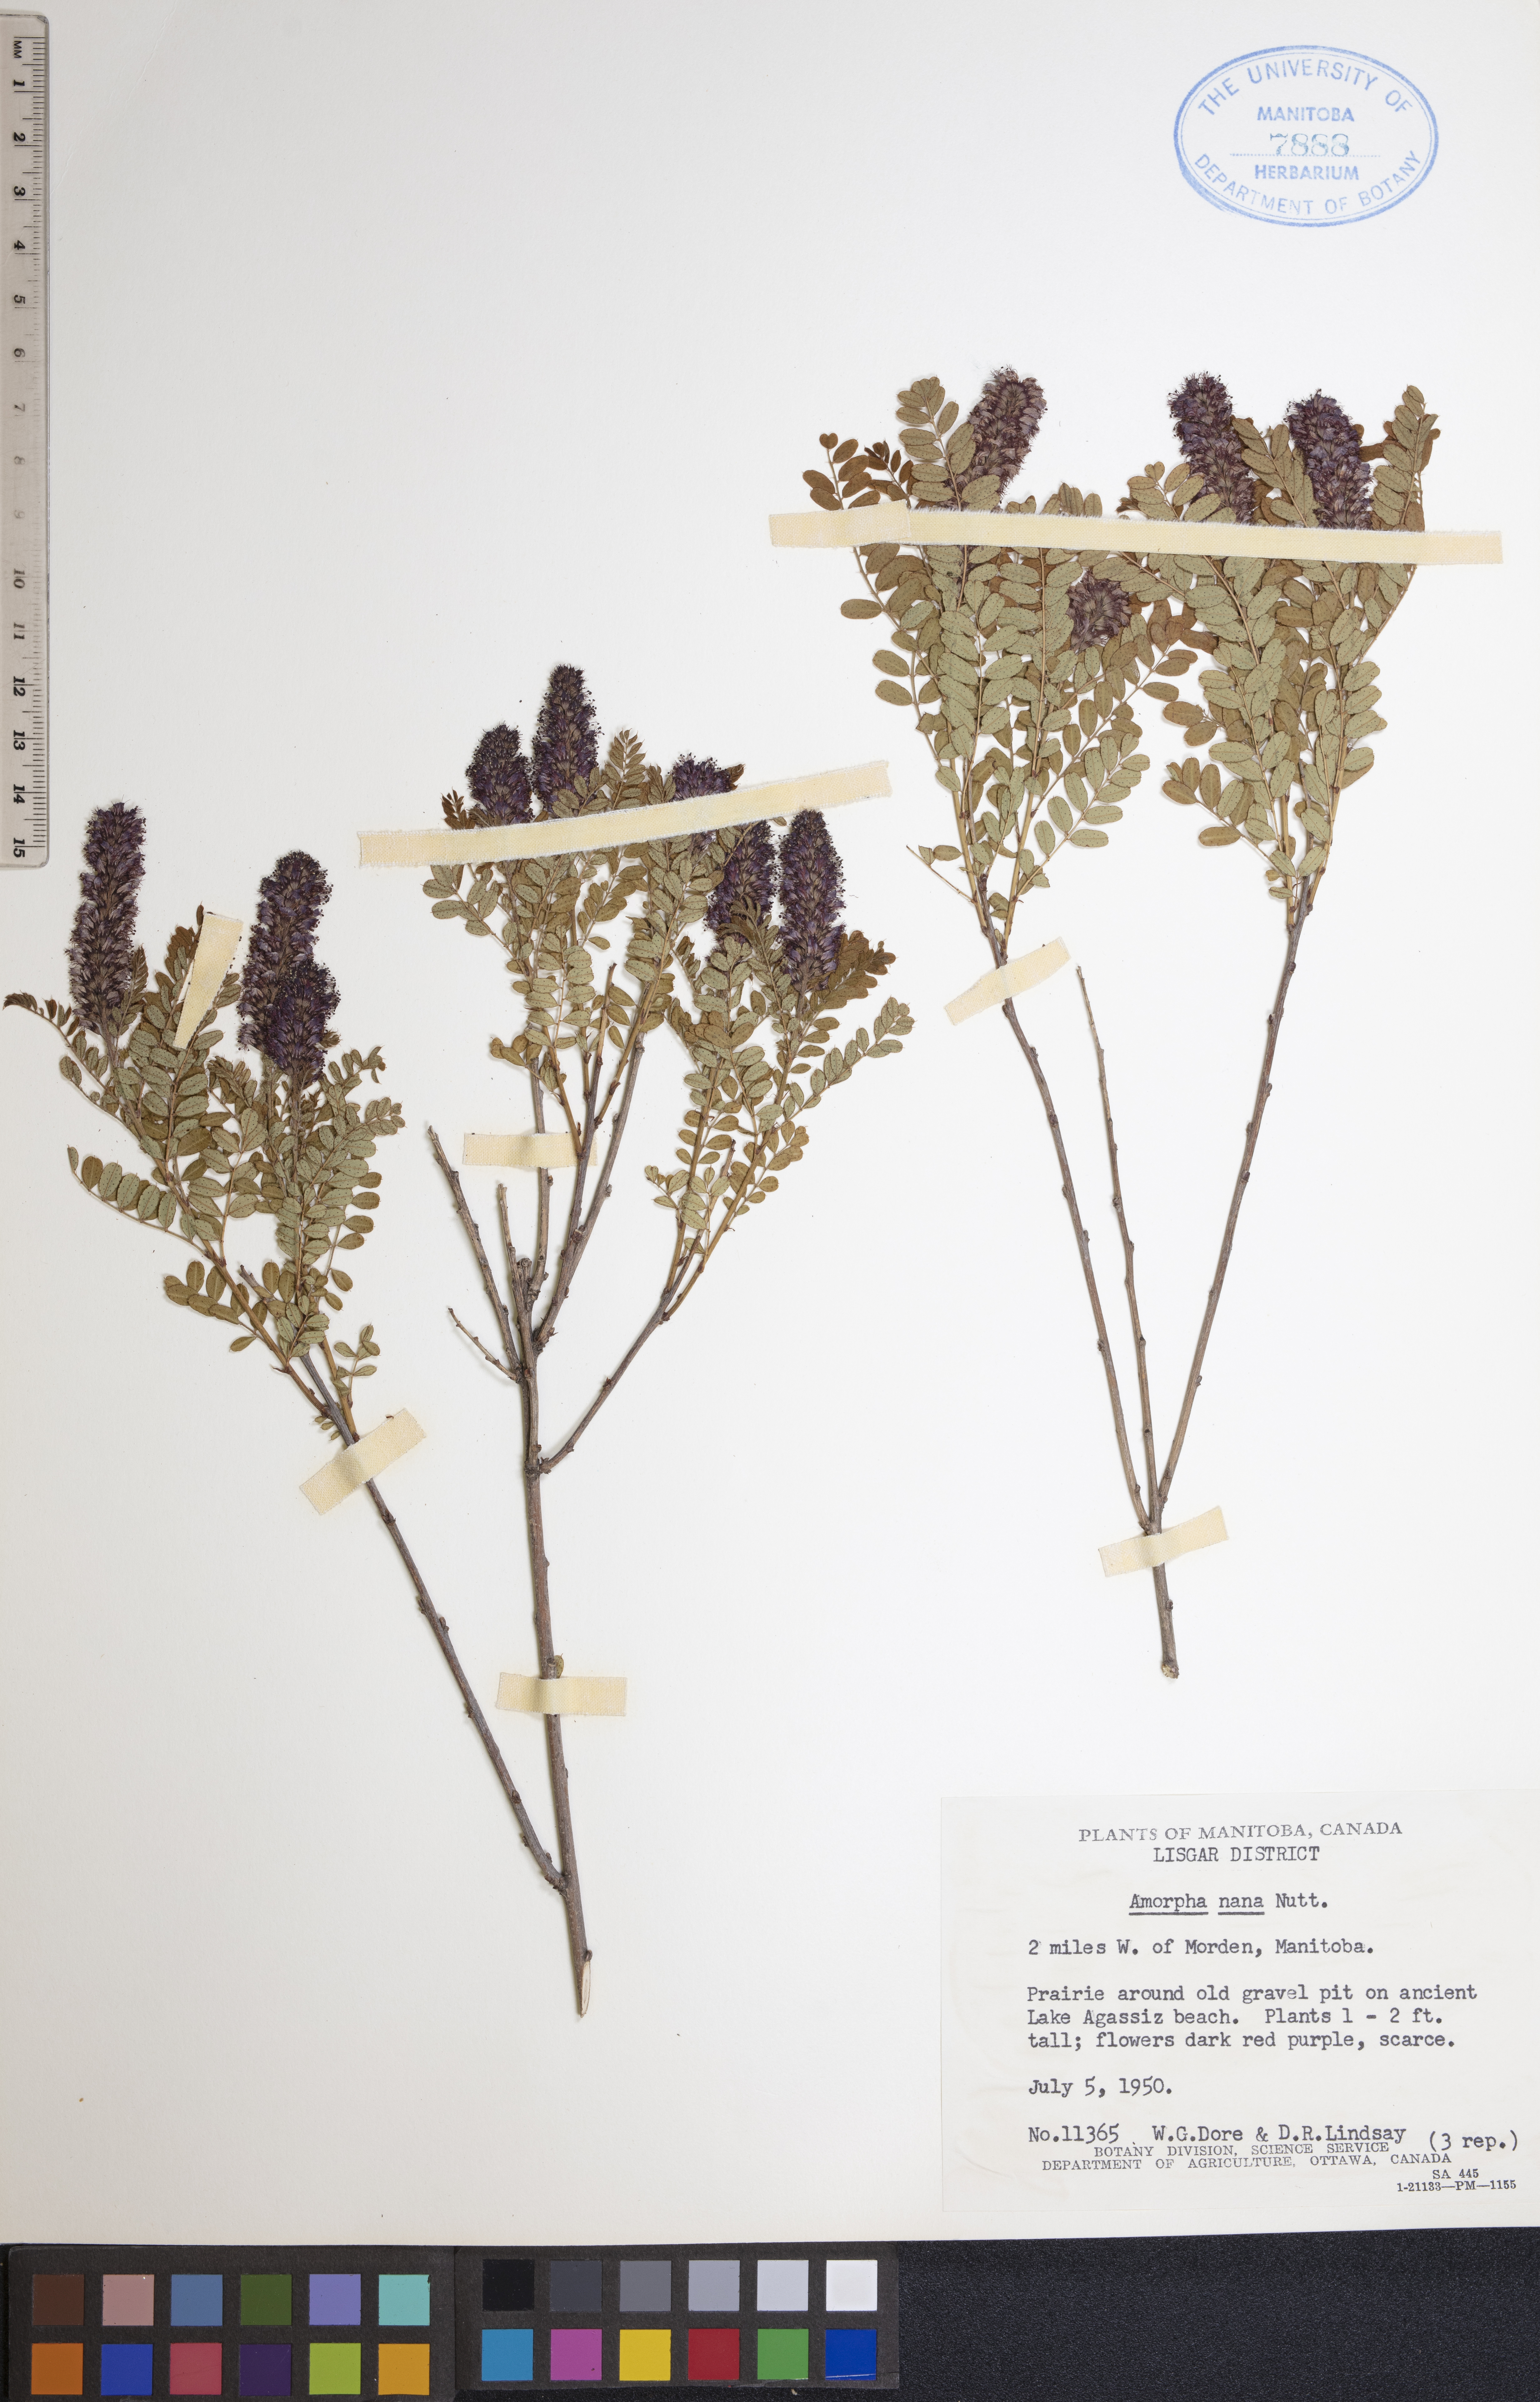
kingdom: Plantae
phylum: Tracheophyta
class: Magnoliopsida
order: Fabales
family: Fabaceae
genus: Amorpha
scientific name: Amorpha nana
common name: Fragrant false indigo
